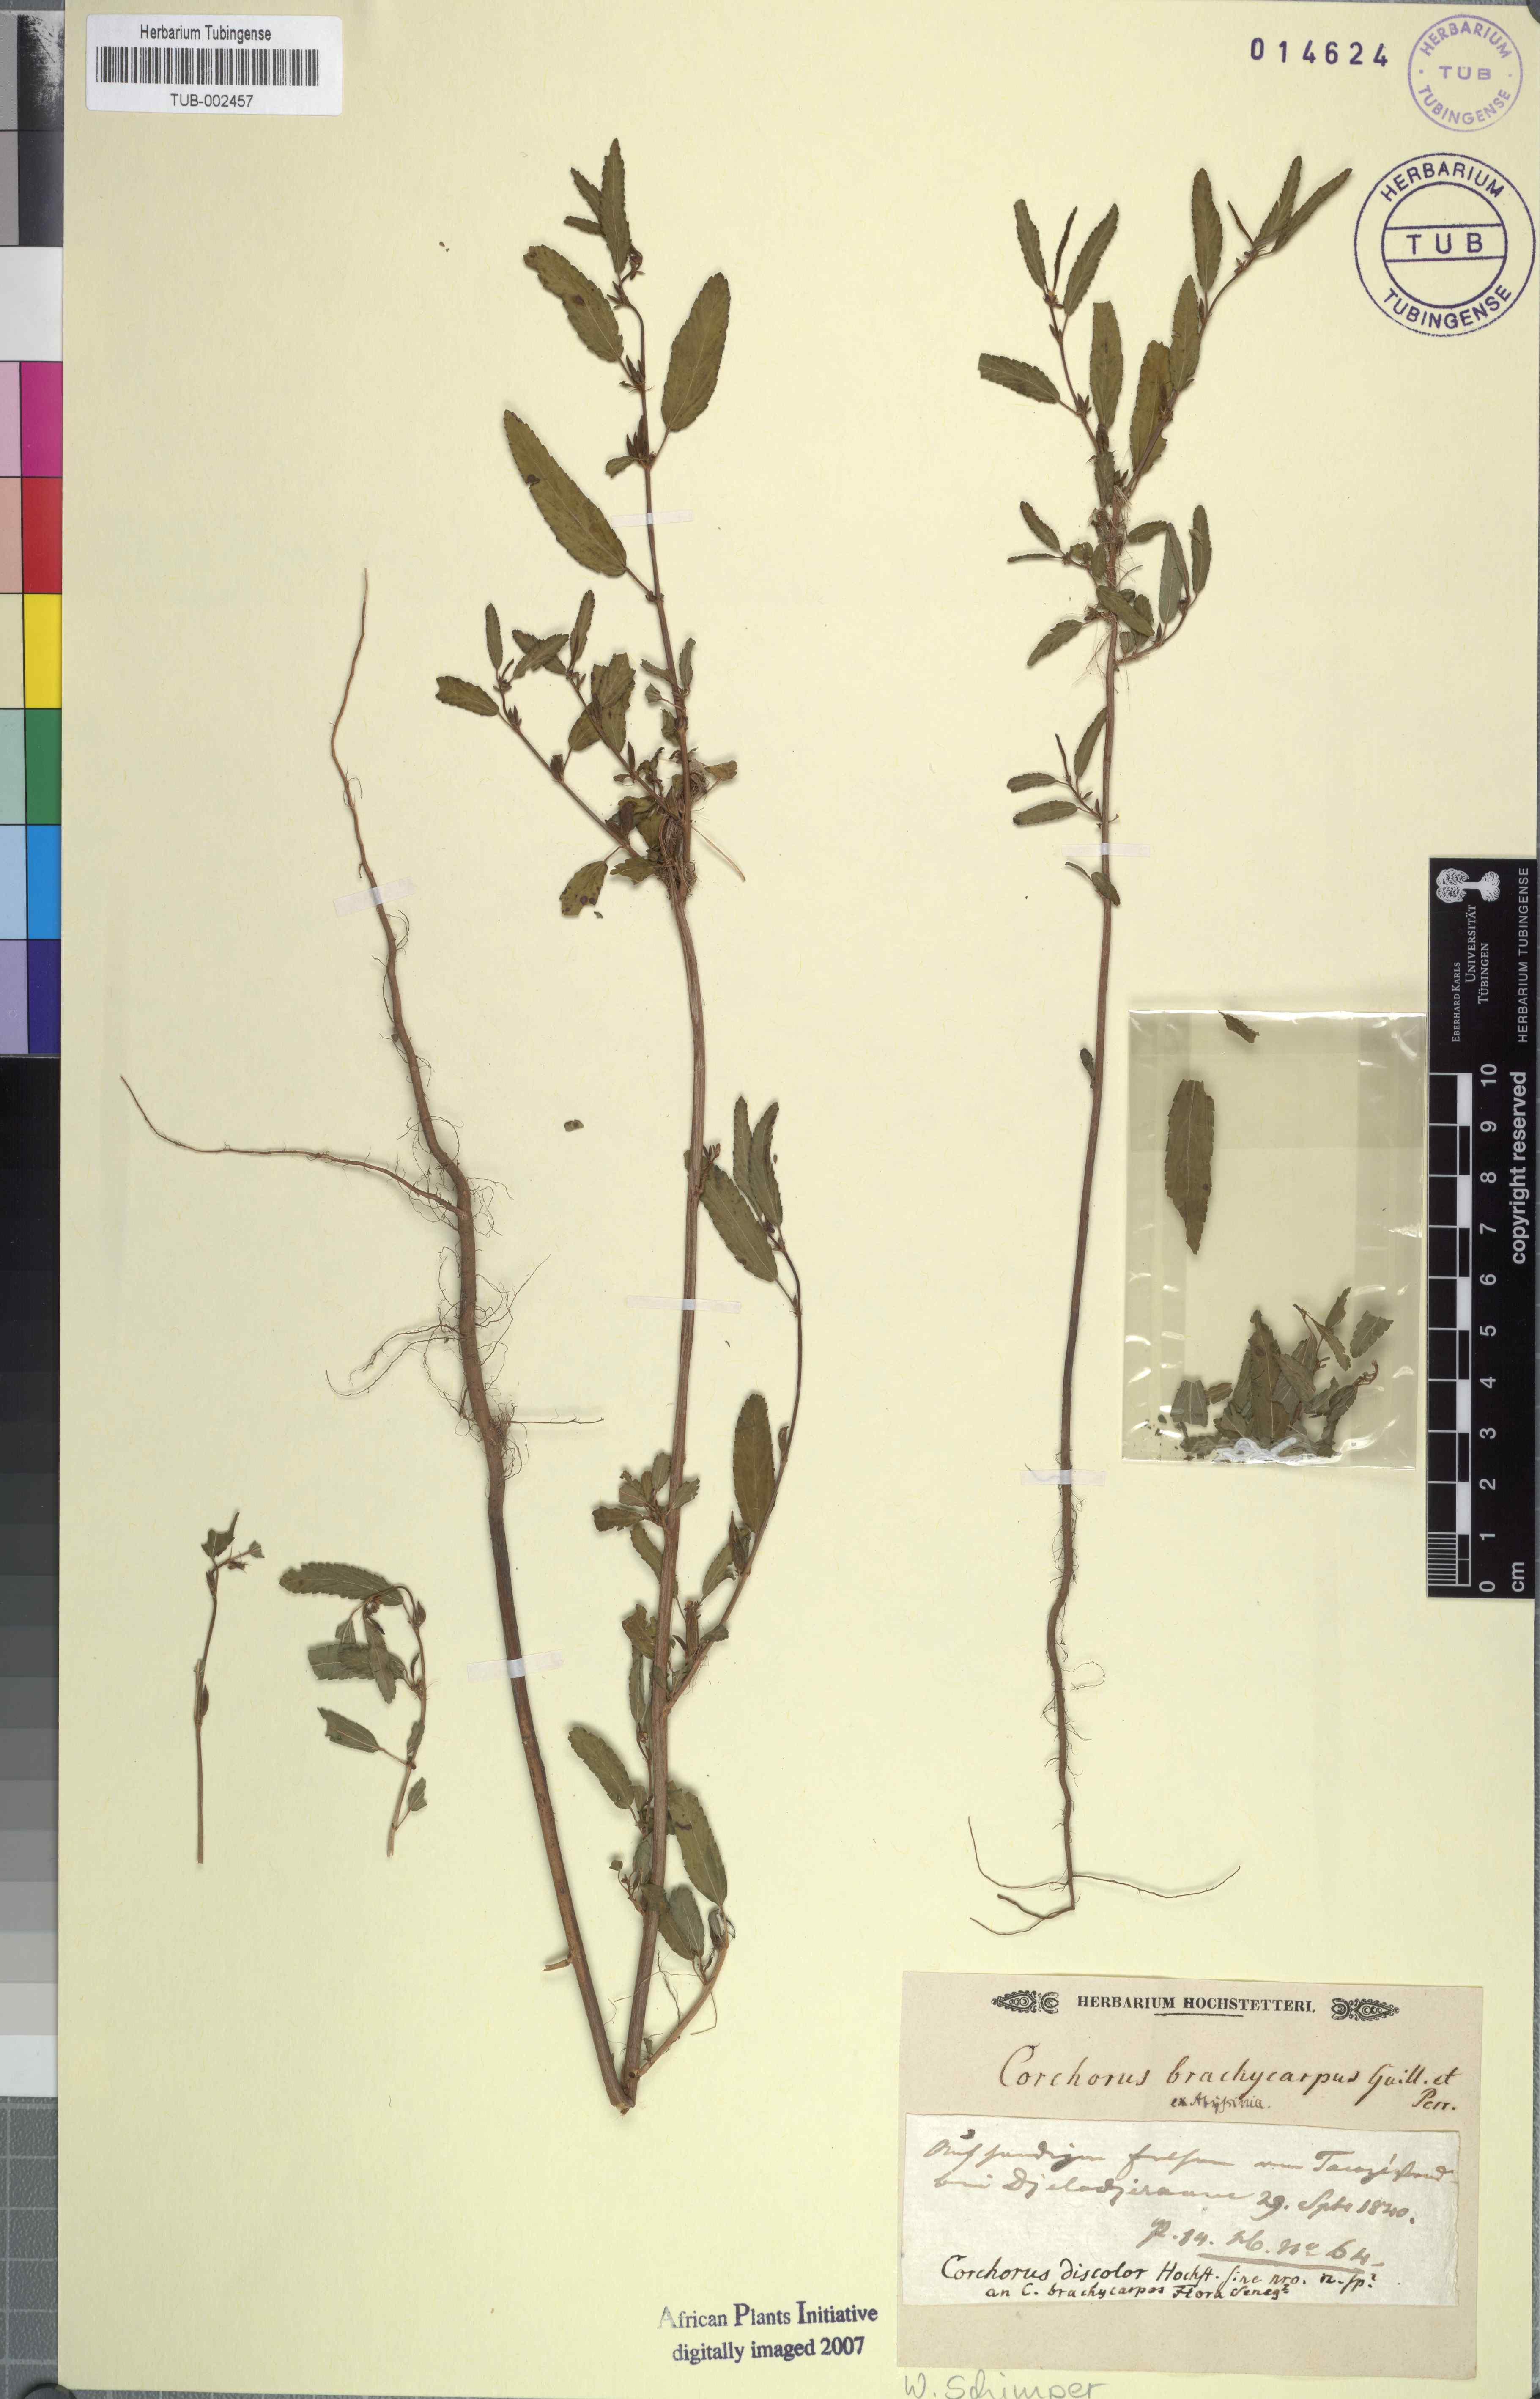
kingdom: Plantae
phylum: Tracheophyta
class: Magnoliopsida
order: Malvales
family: Malvaceae
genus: Corchorus
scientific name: Corchorus fascicularis
